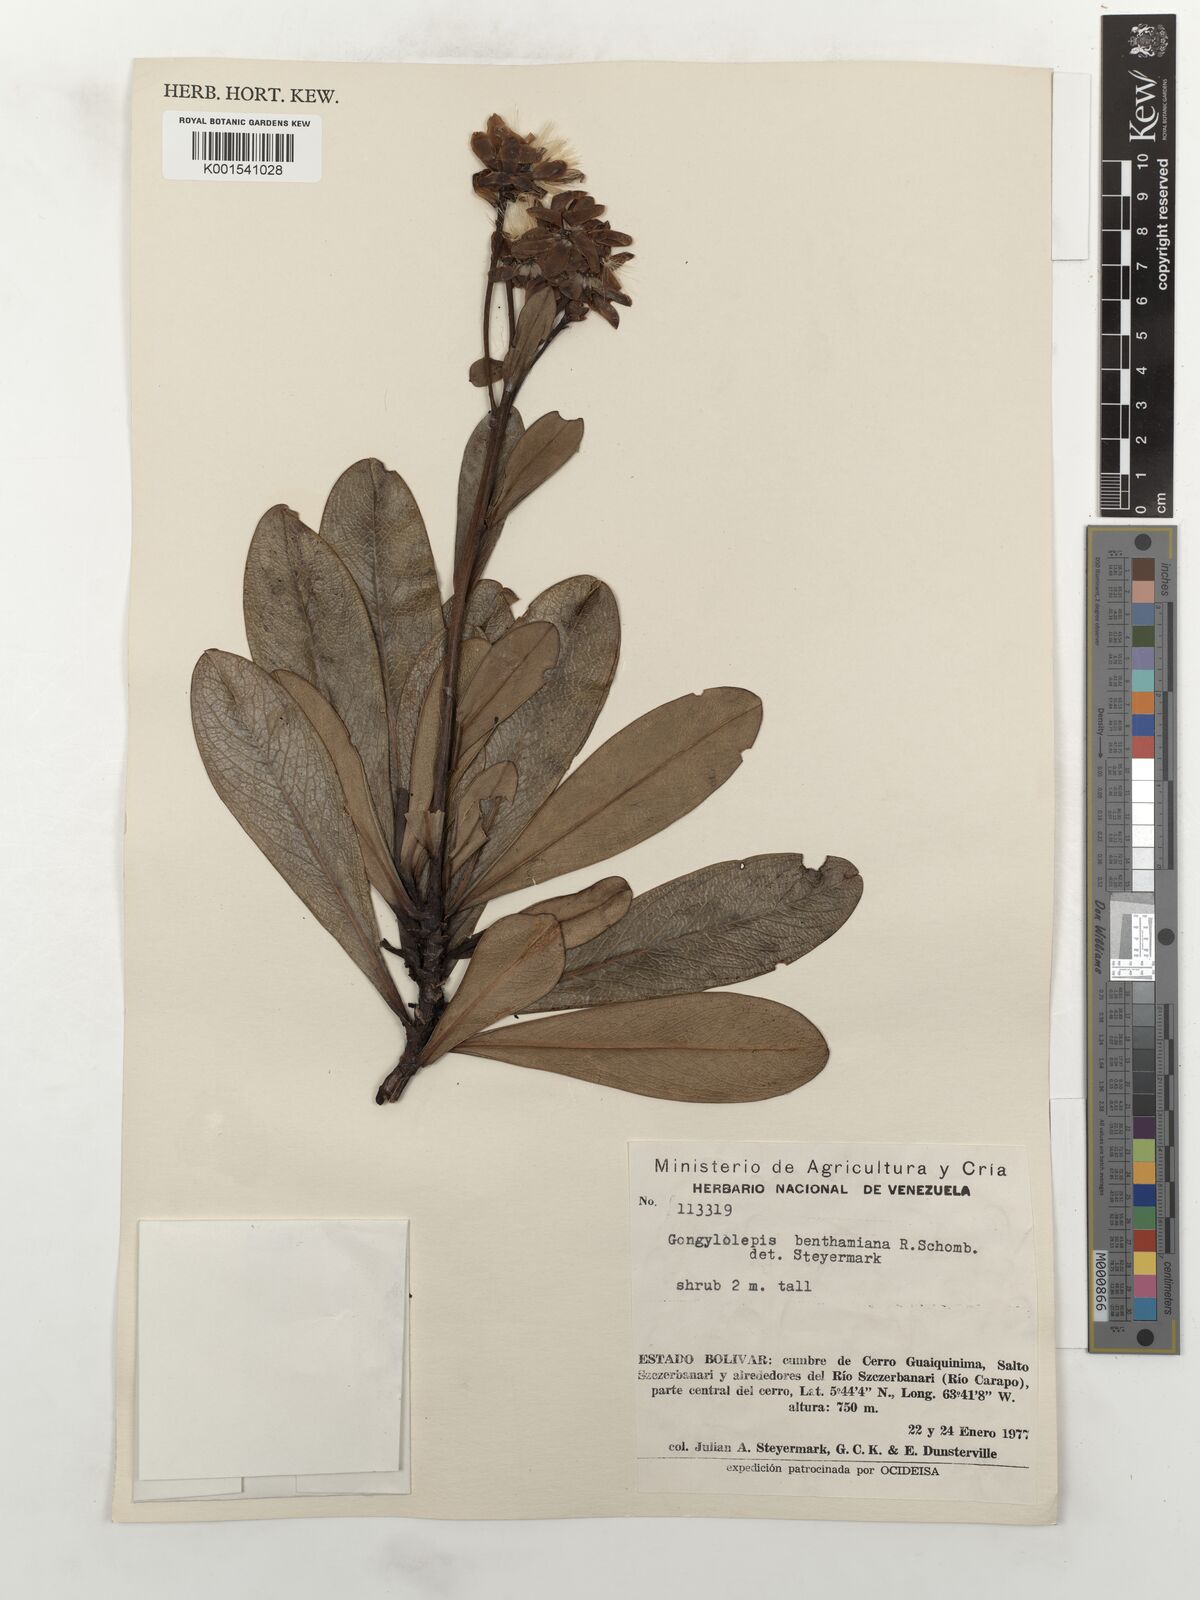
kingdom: Plantae
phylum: Tracheophyta
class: Magnoliopsida
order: Asterales
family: Asteraceae
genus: Gongylolepis
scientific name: Gongylolepis benthamiana
